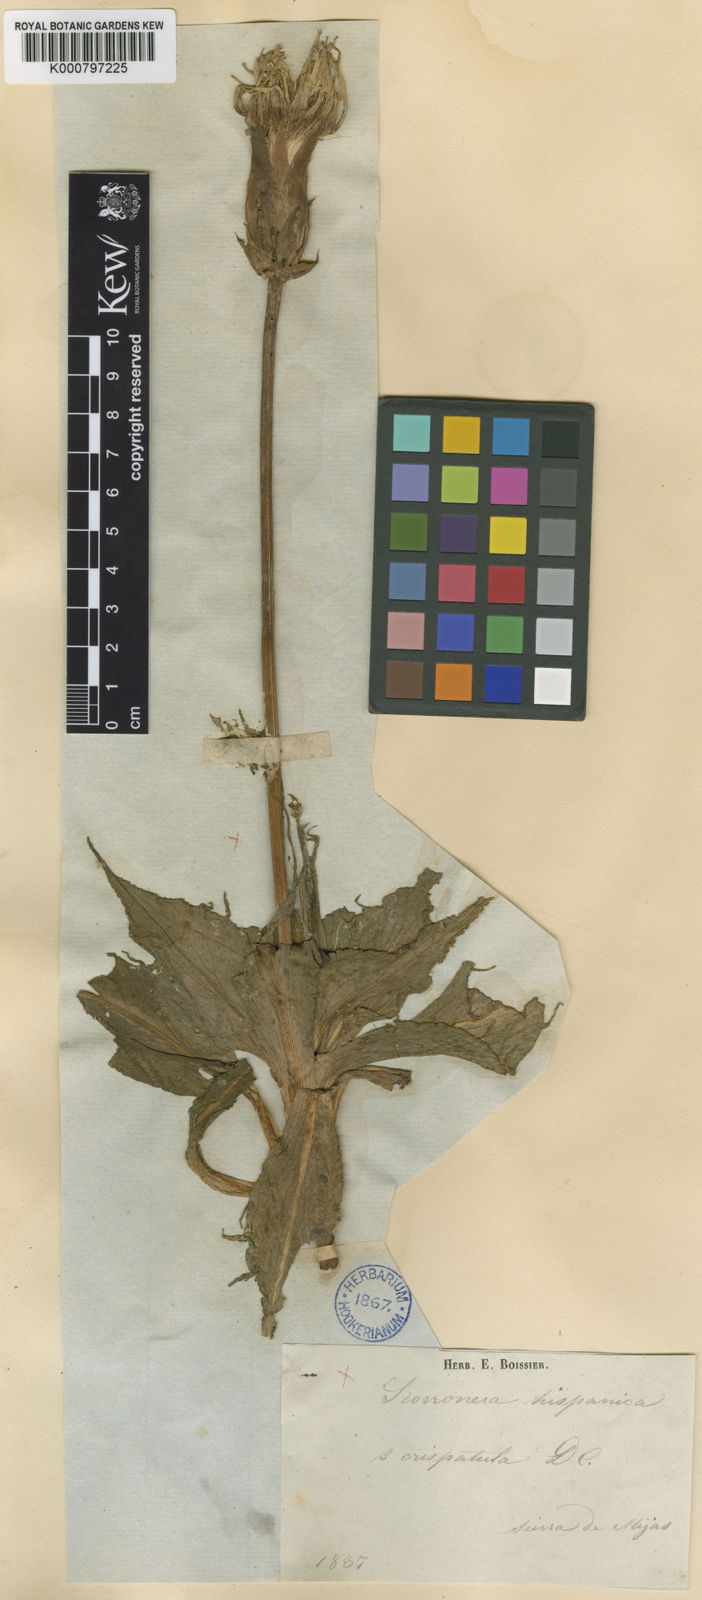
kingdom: Plantae
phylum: Tracheophyta
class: Magnoliopsida
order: Asterales
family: Asteraceae
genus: Pseudopodospermum
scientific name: Pseudopodospermum crispatulum
